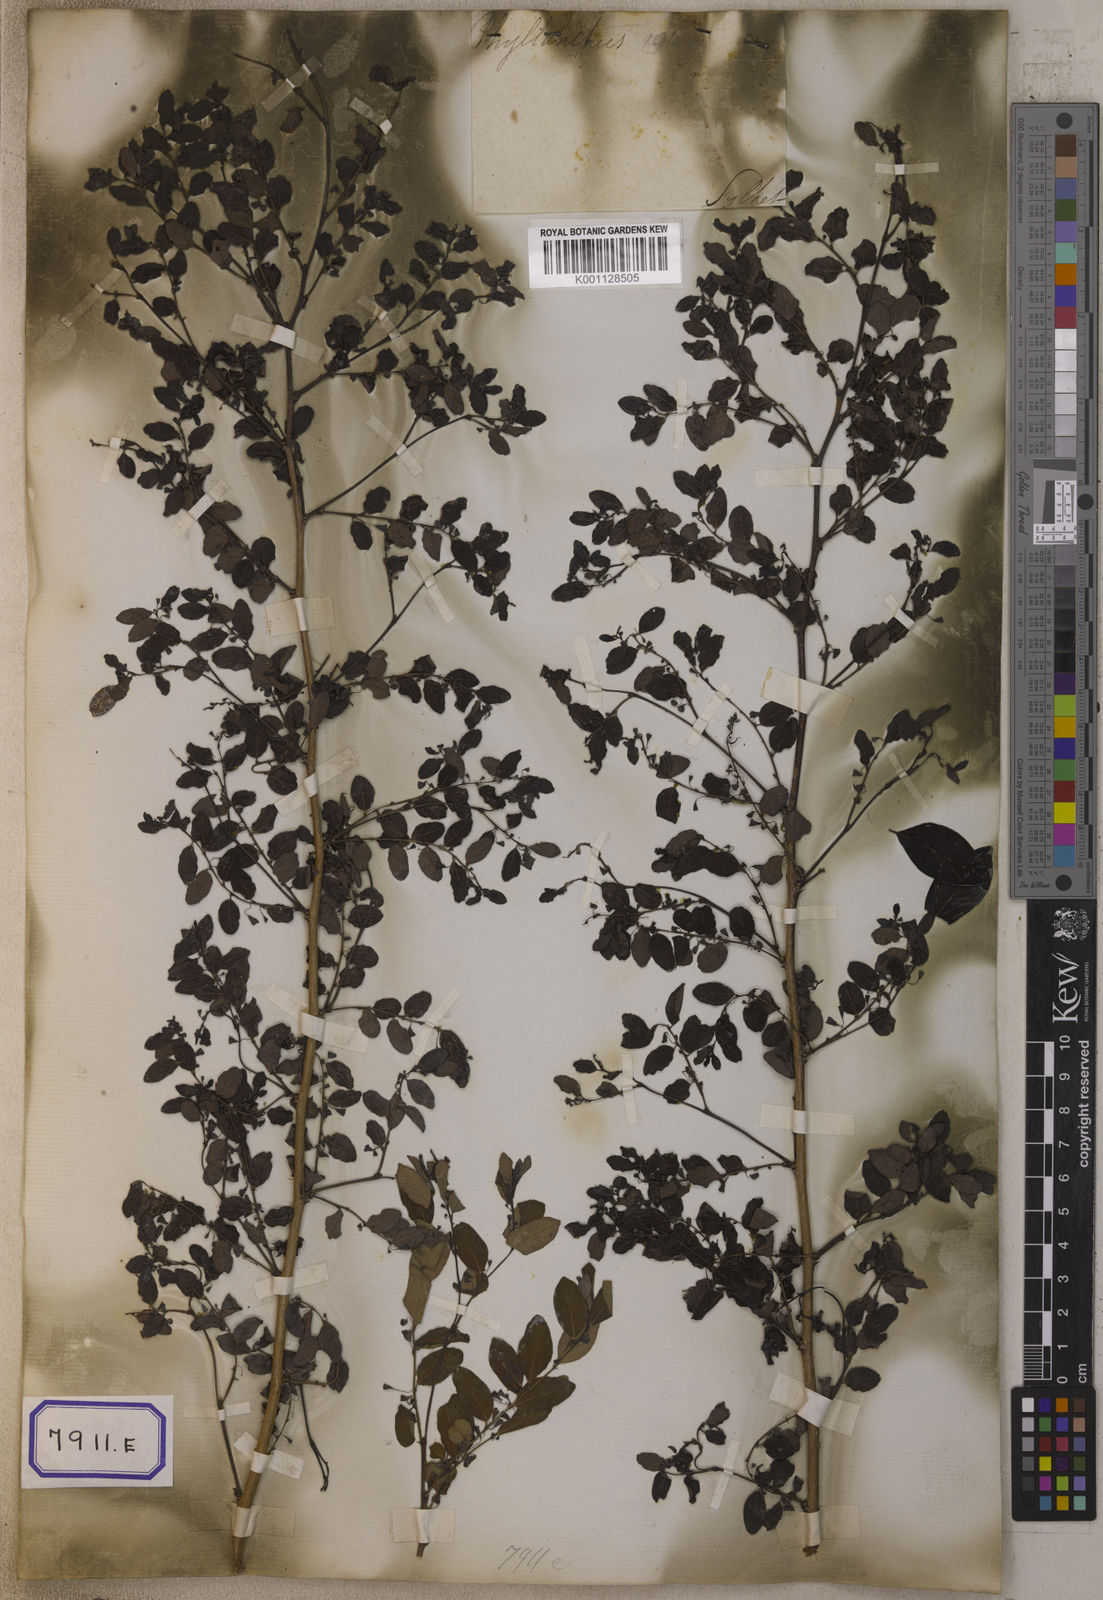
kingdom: Plantae
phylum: Tracheophyta
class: Magnoliopsida
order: Malpighiales
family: Euphorbiaceae
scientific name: Euphorbiaceae
